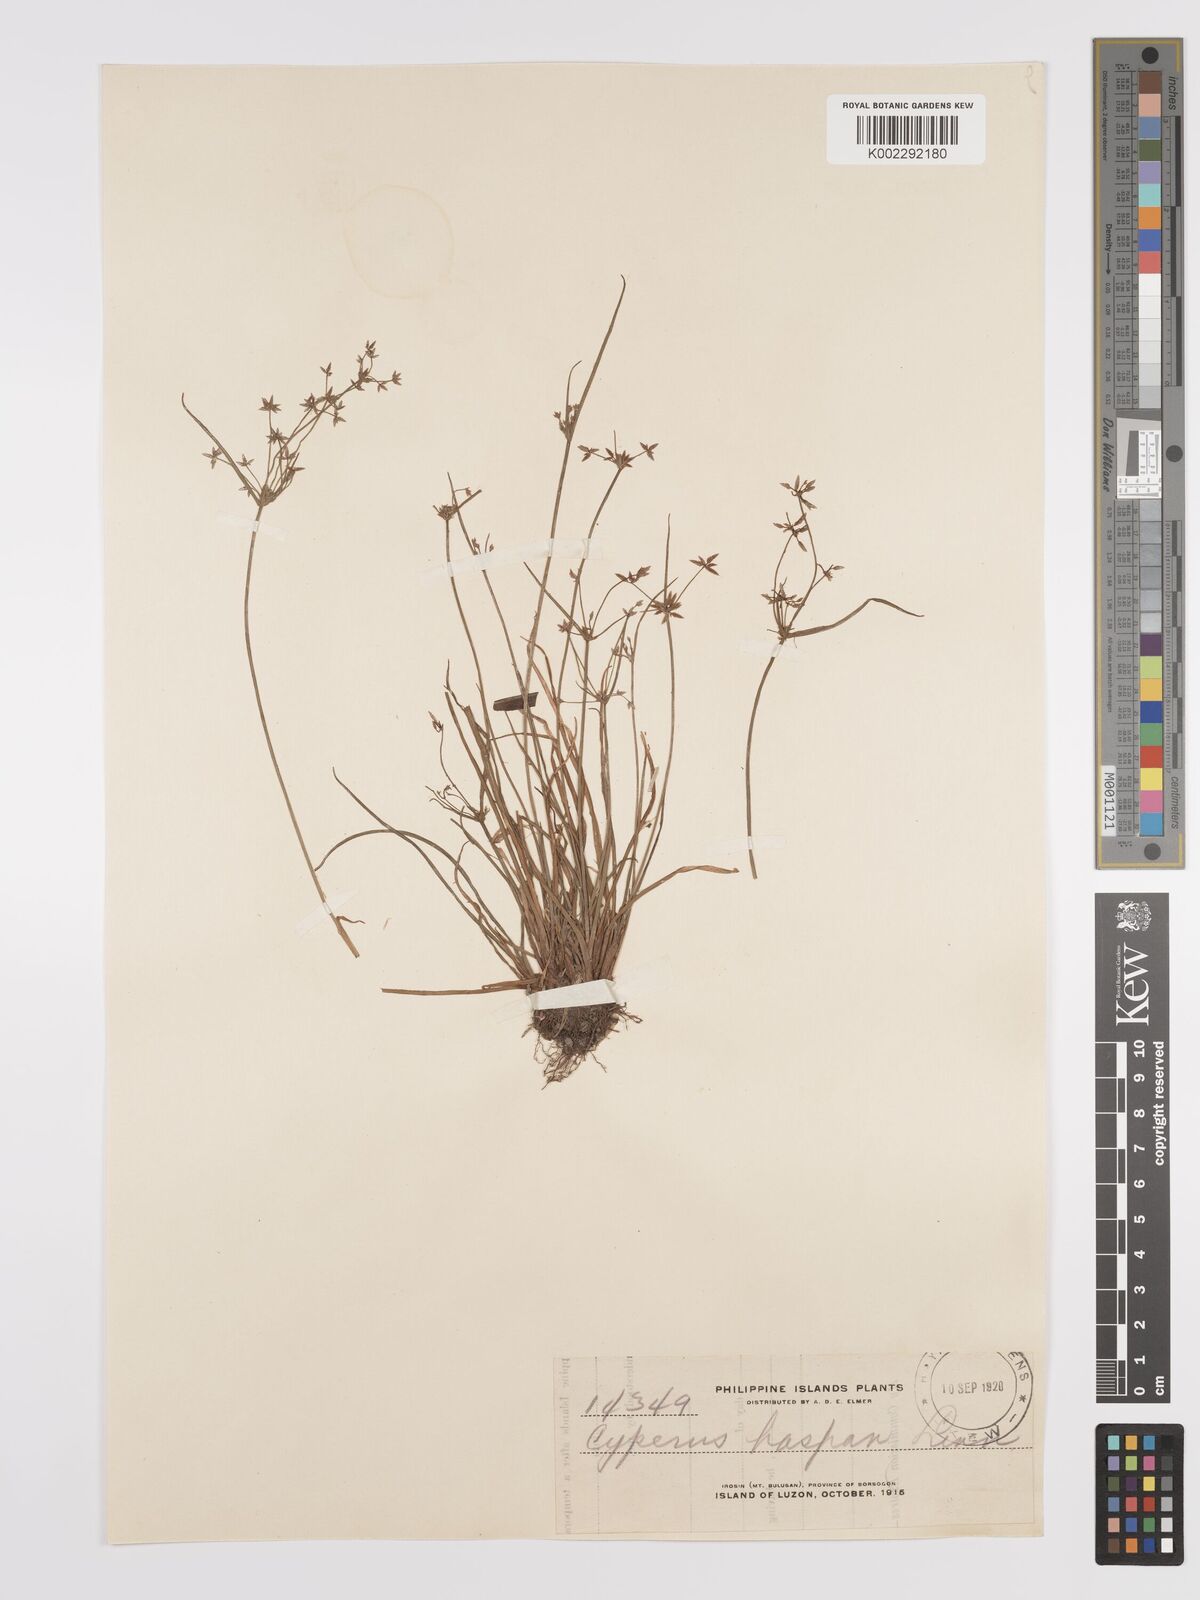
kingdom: Plantae
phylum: Tracheophyta
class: Liliopsida
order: Poales
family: Cyperaceae
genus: Cyperus
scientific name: Cyperus haspan
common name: Haspan flatsedge
